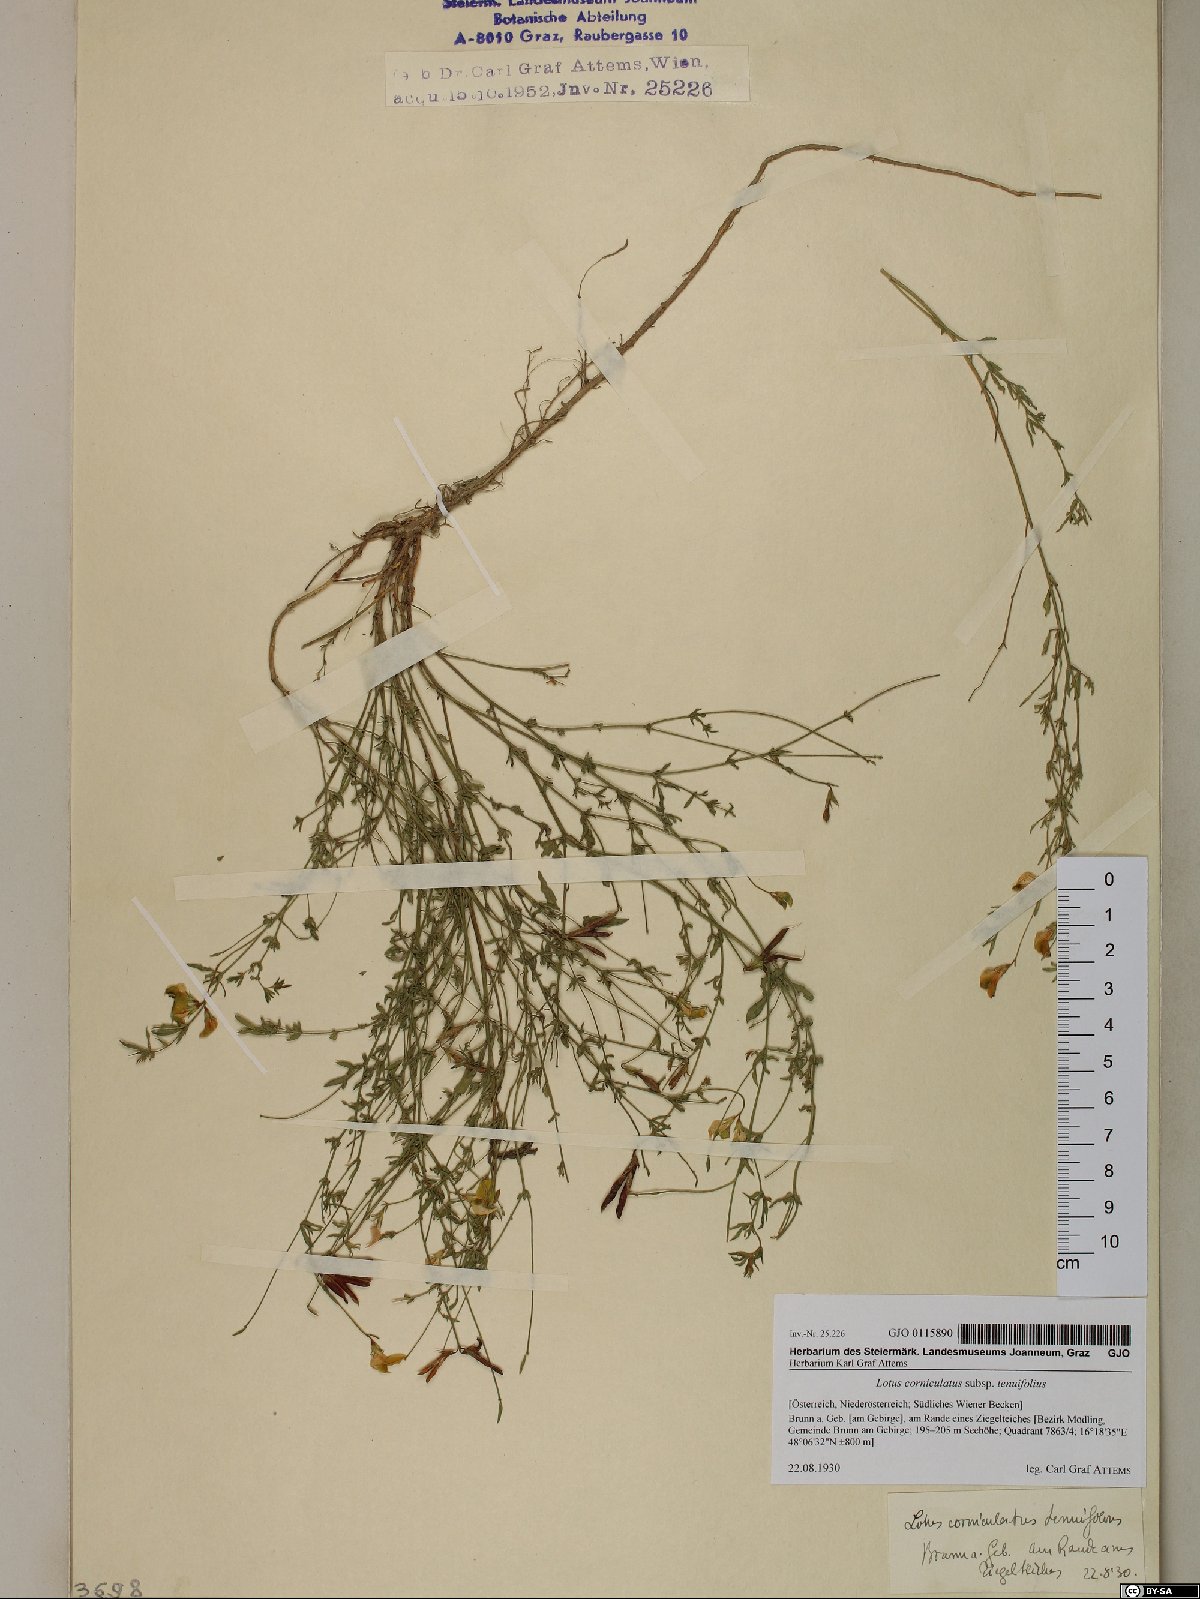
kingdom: Plantae
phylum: Tracheophyta
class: Magnoliopsida
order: Fabales
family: Fabaceae
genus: Lotus
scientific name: Lotus tenuis
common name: Narrow-leaved bird's-foot-trefoil
